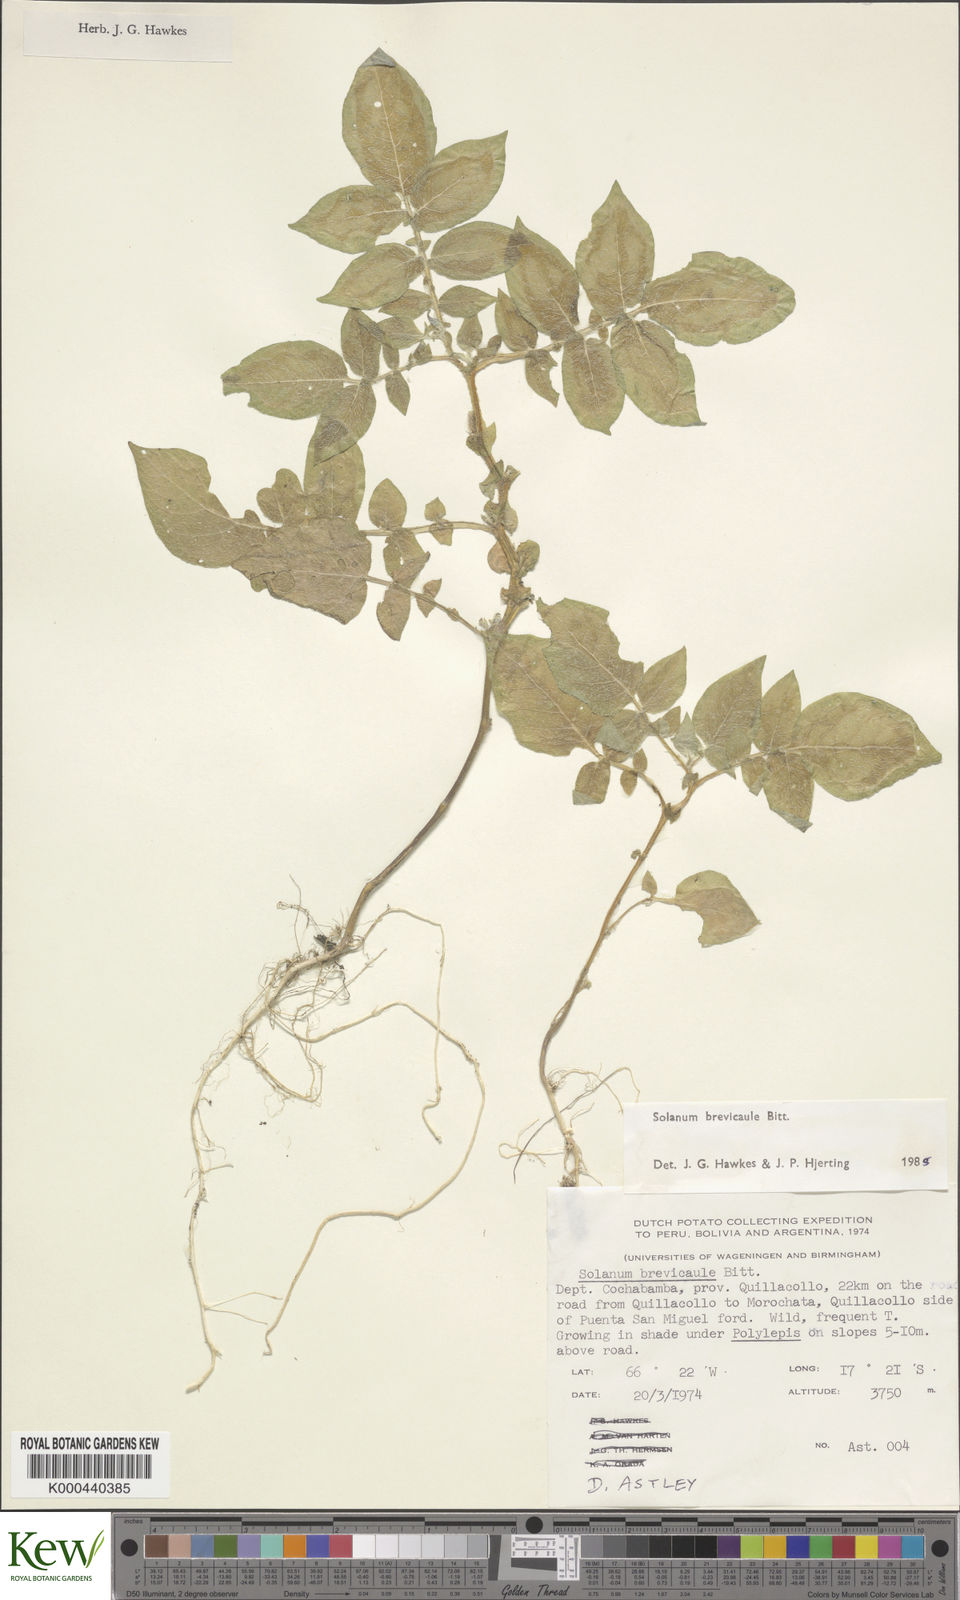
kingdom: Plantae
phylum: Tracheophyta
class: Magnoliopsida
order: Solanales
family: Solanaceae
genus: Solanum
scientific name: Solanum brevicaule
